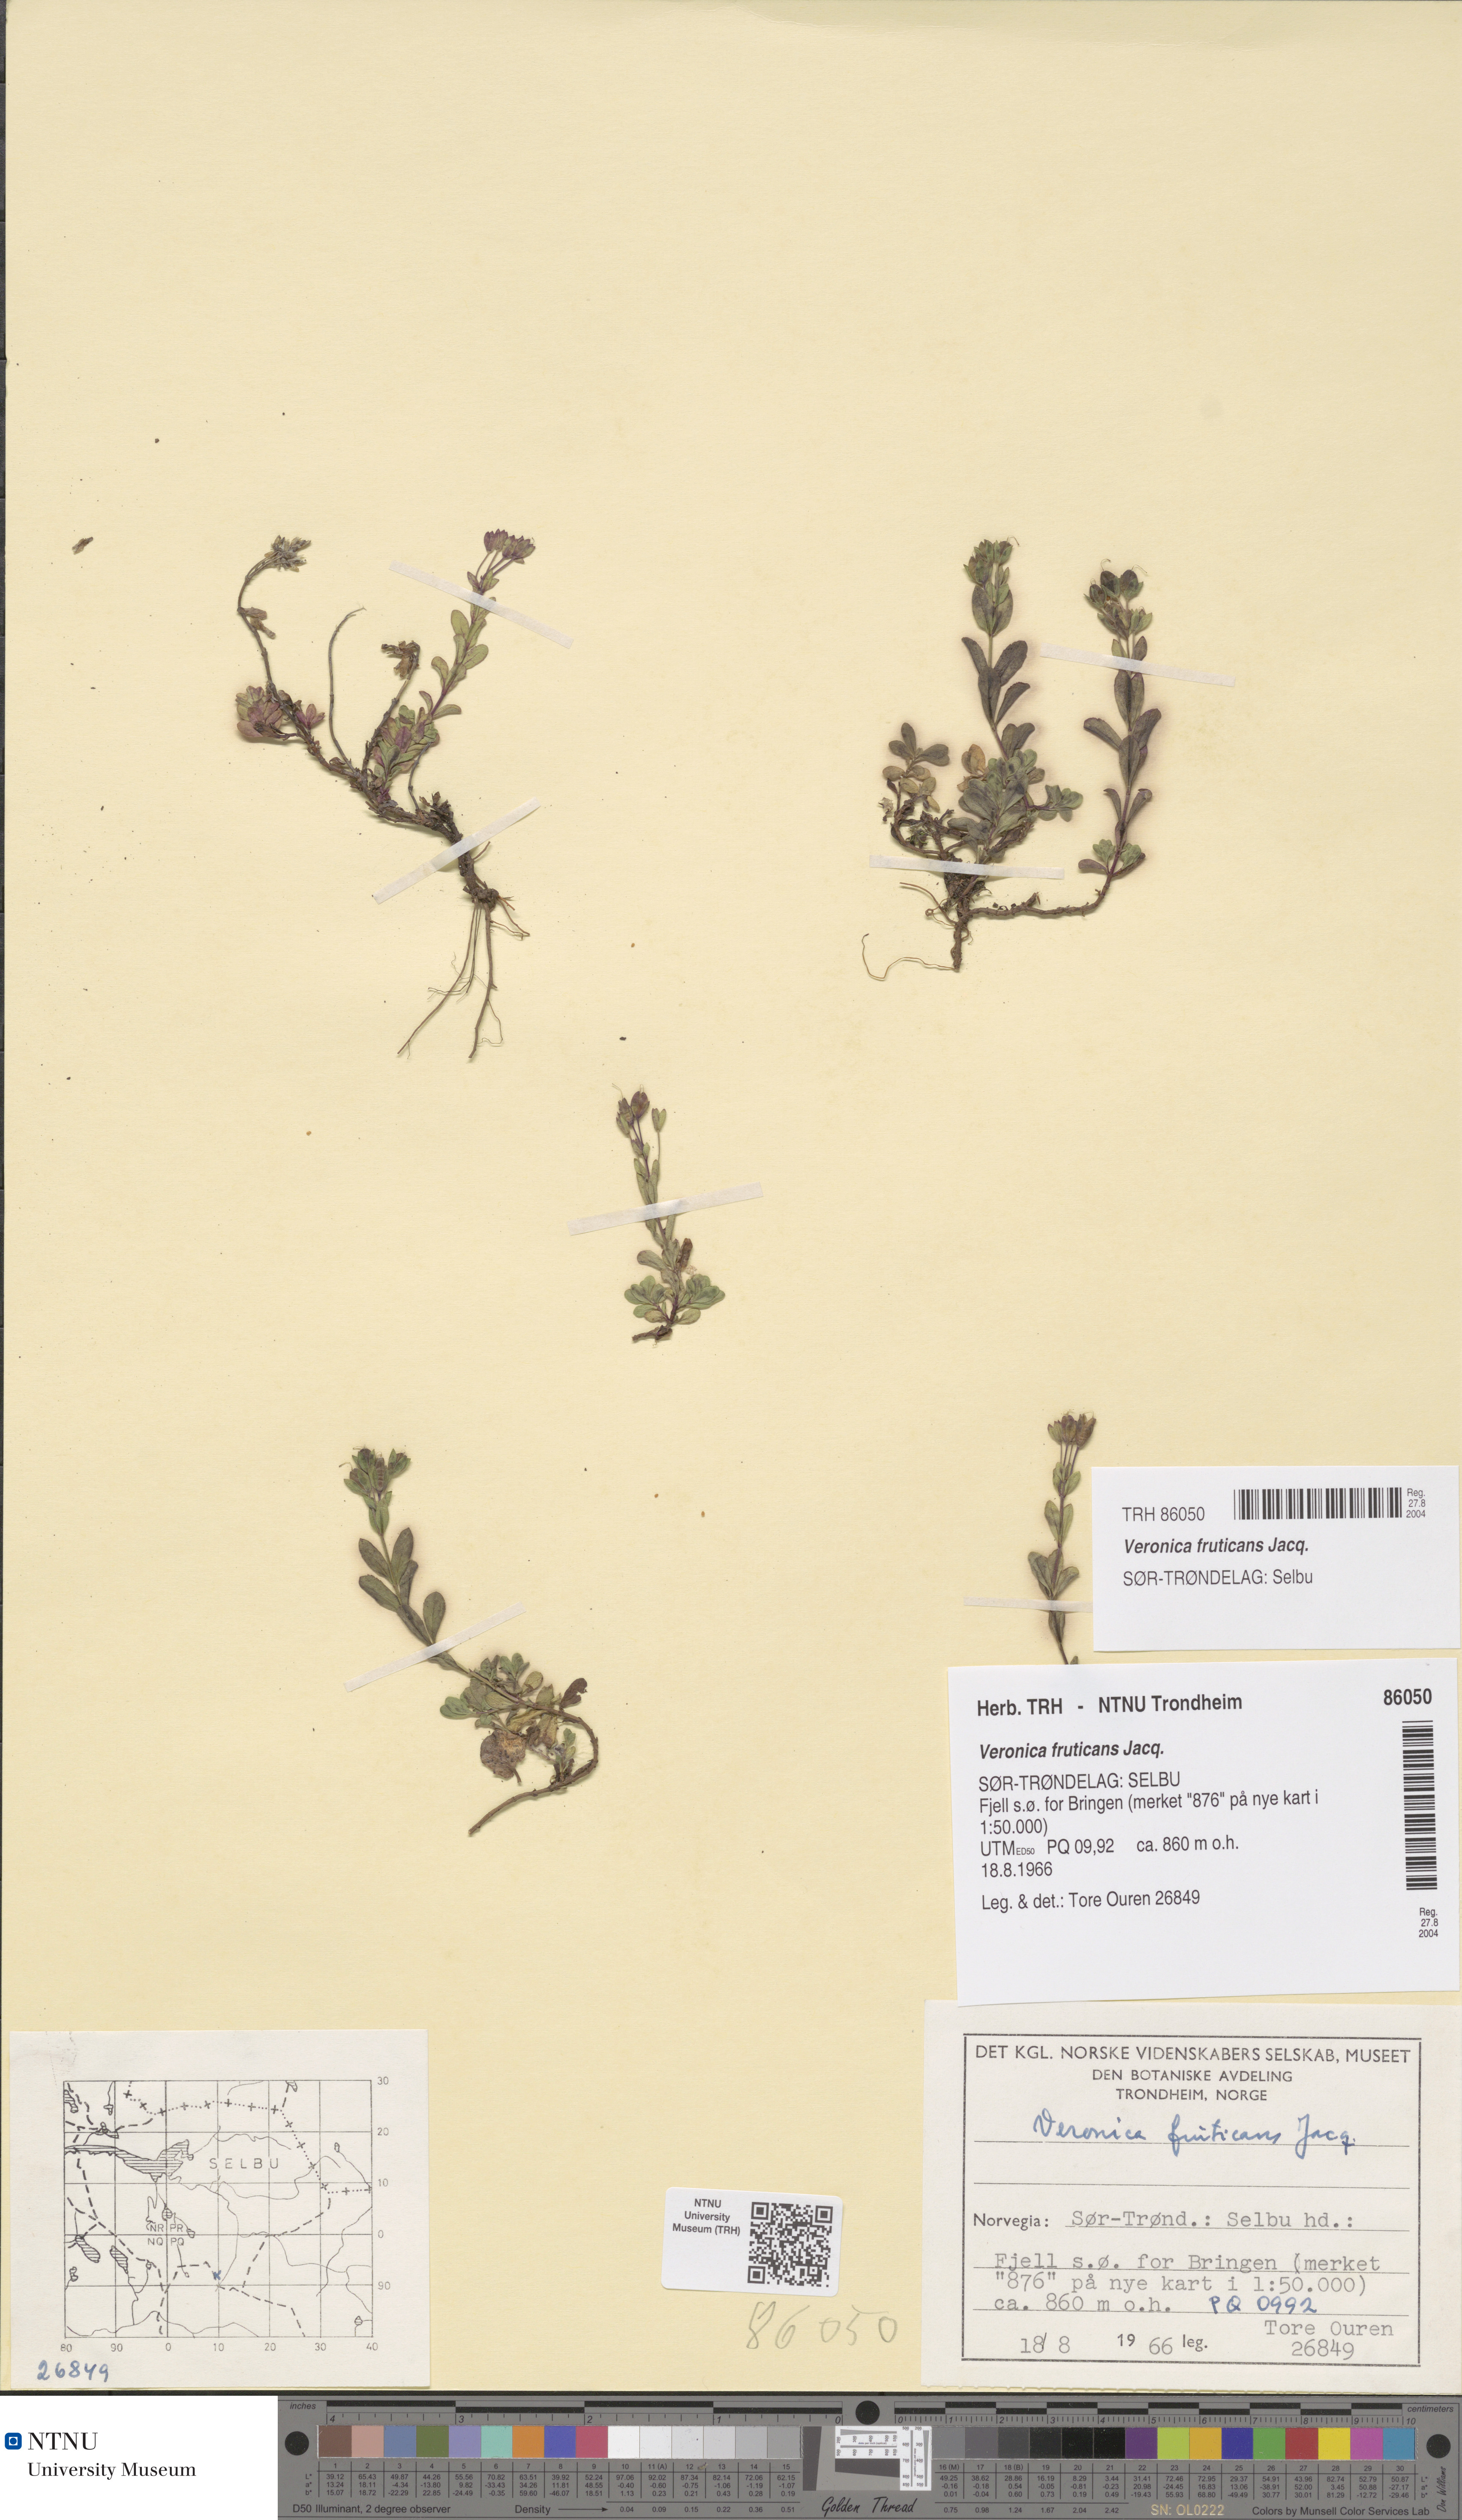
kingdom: Plantae
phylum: Tracheophyta
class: Magnoliopsida
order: Lamiales
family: Plantaginaceae
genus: Veronica
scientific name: Veronica fruticans
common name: Rock speedwell
